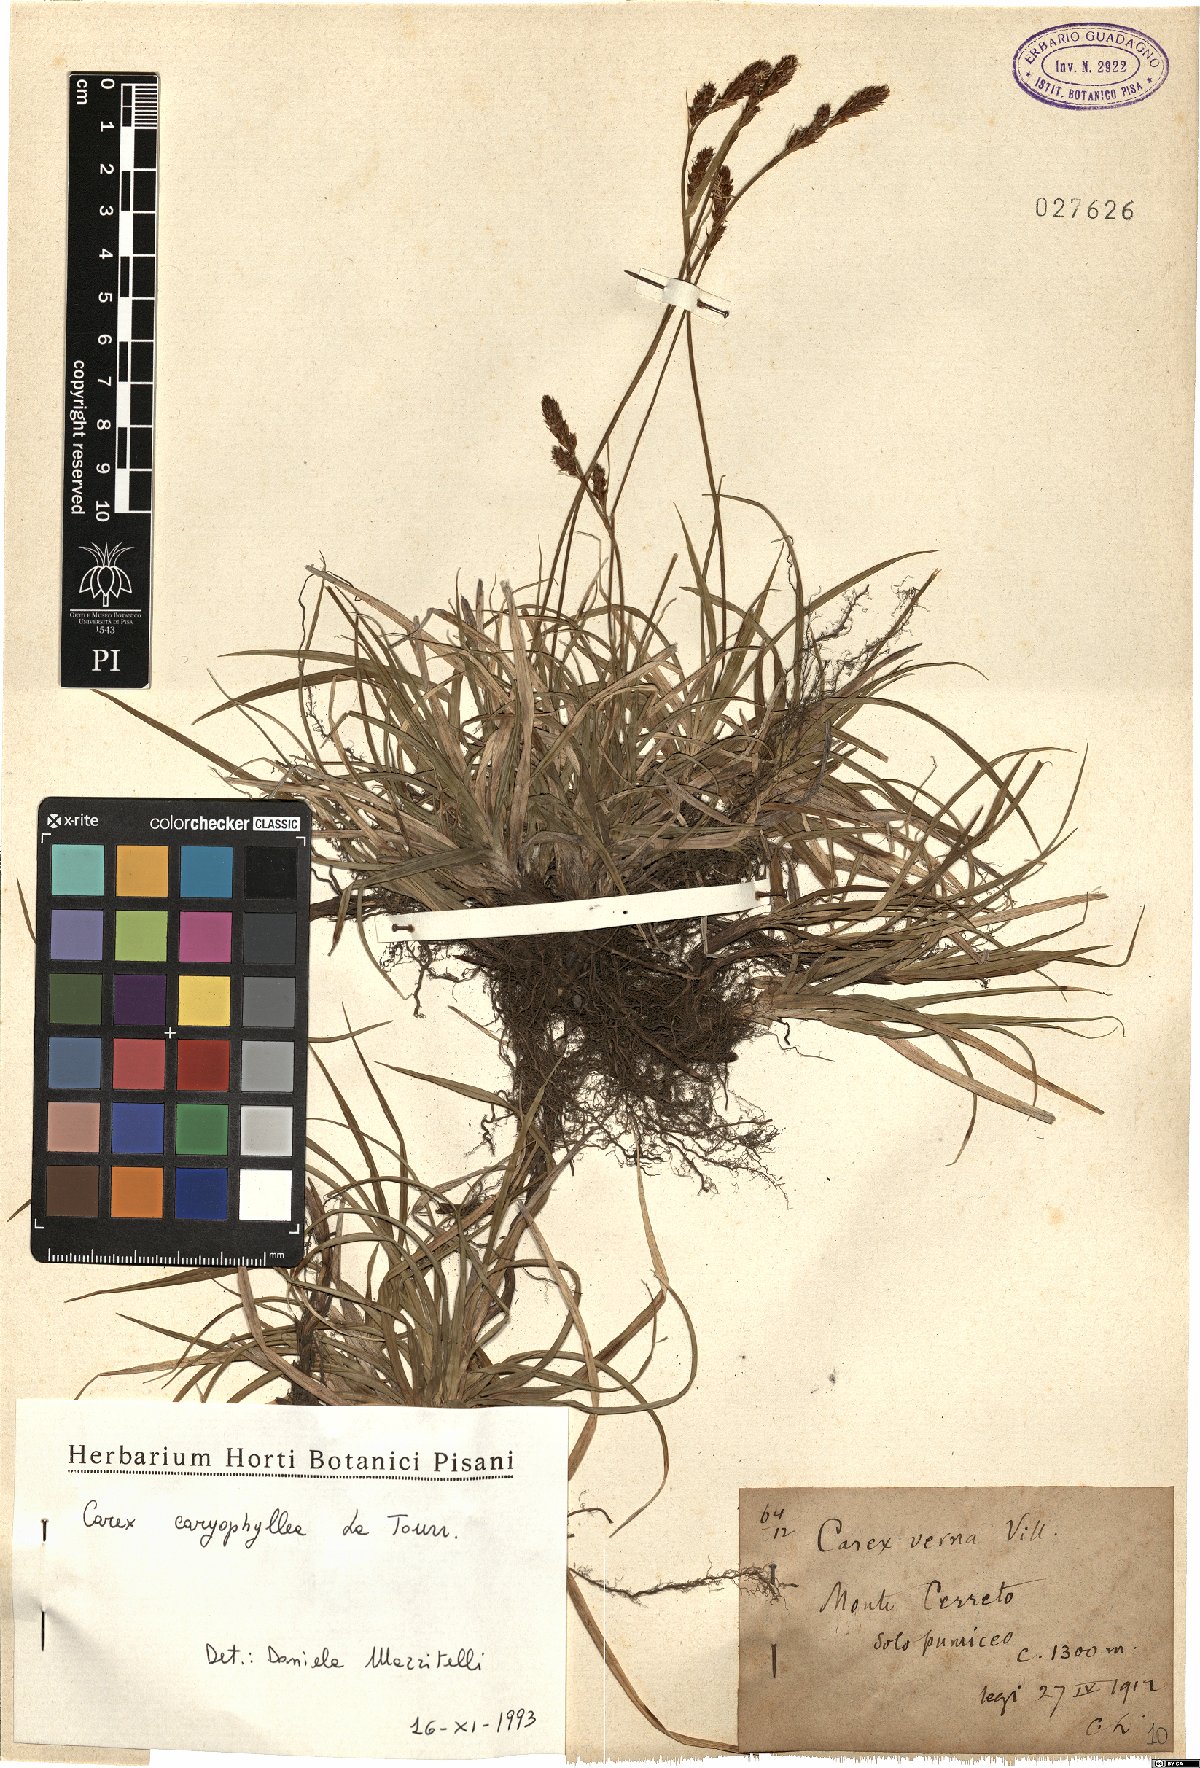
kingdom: Plantae
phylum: Tracheophyta
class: Liliopsida
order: Poales
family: Cyperaceae
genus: Carex
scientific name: Carex caryophyllea
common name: Spring sedge
